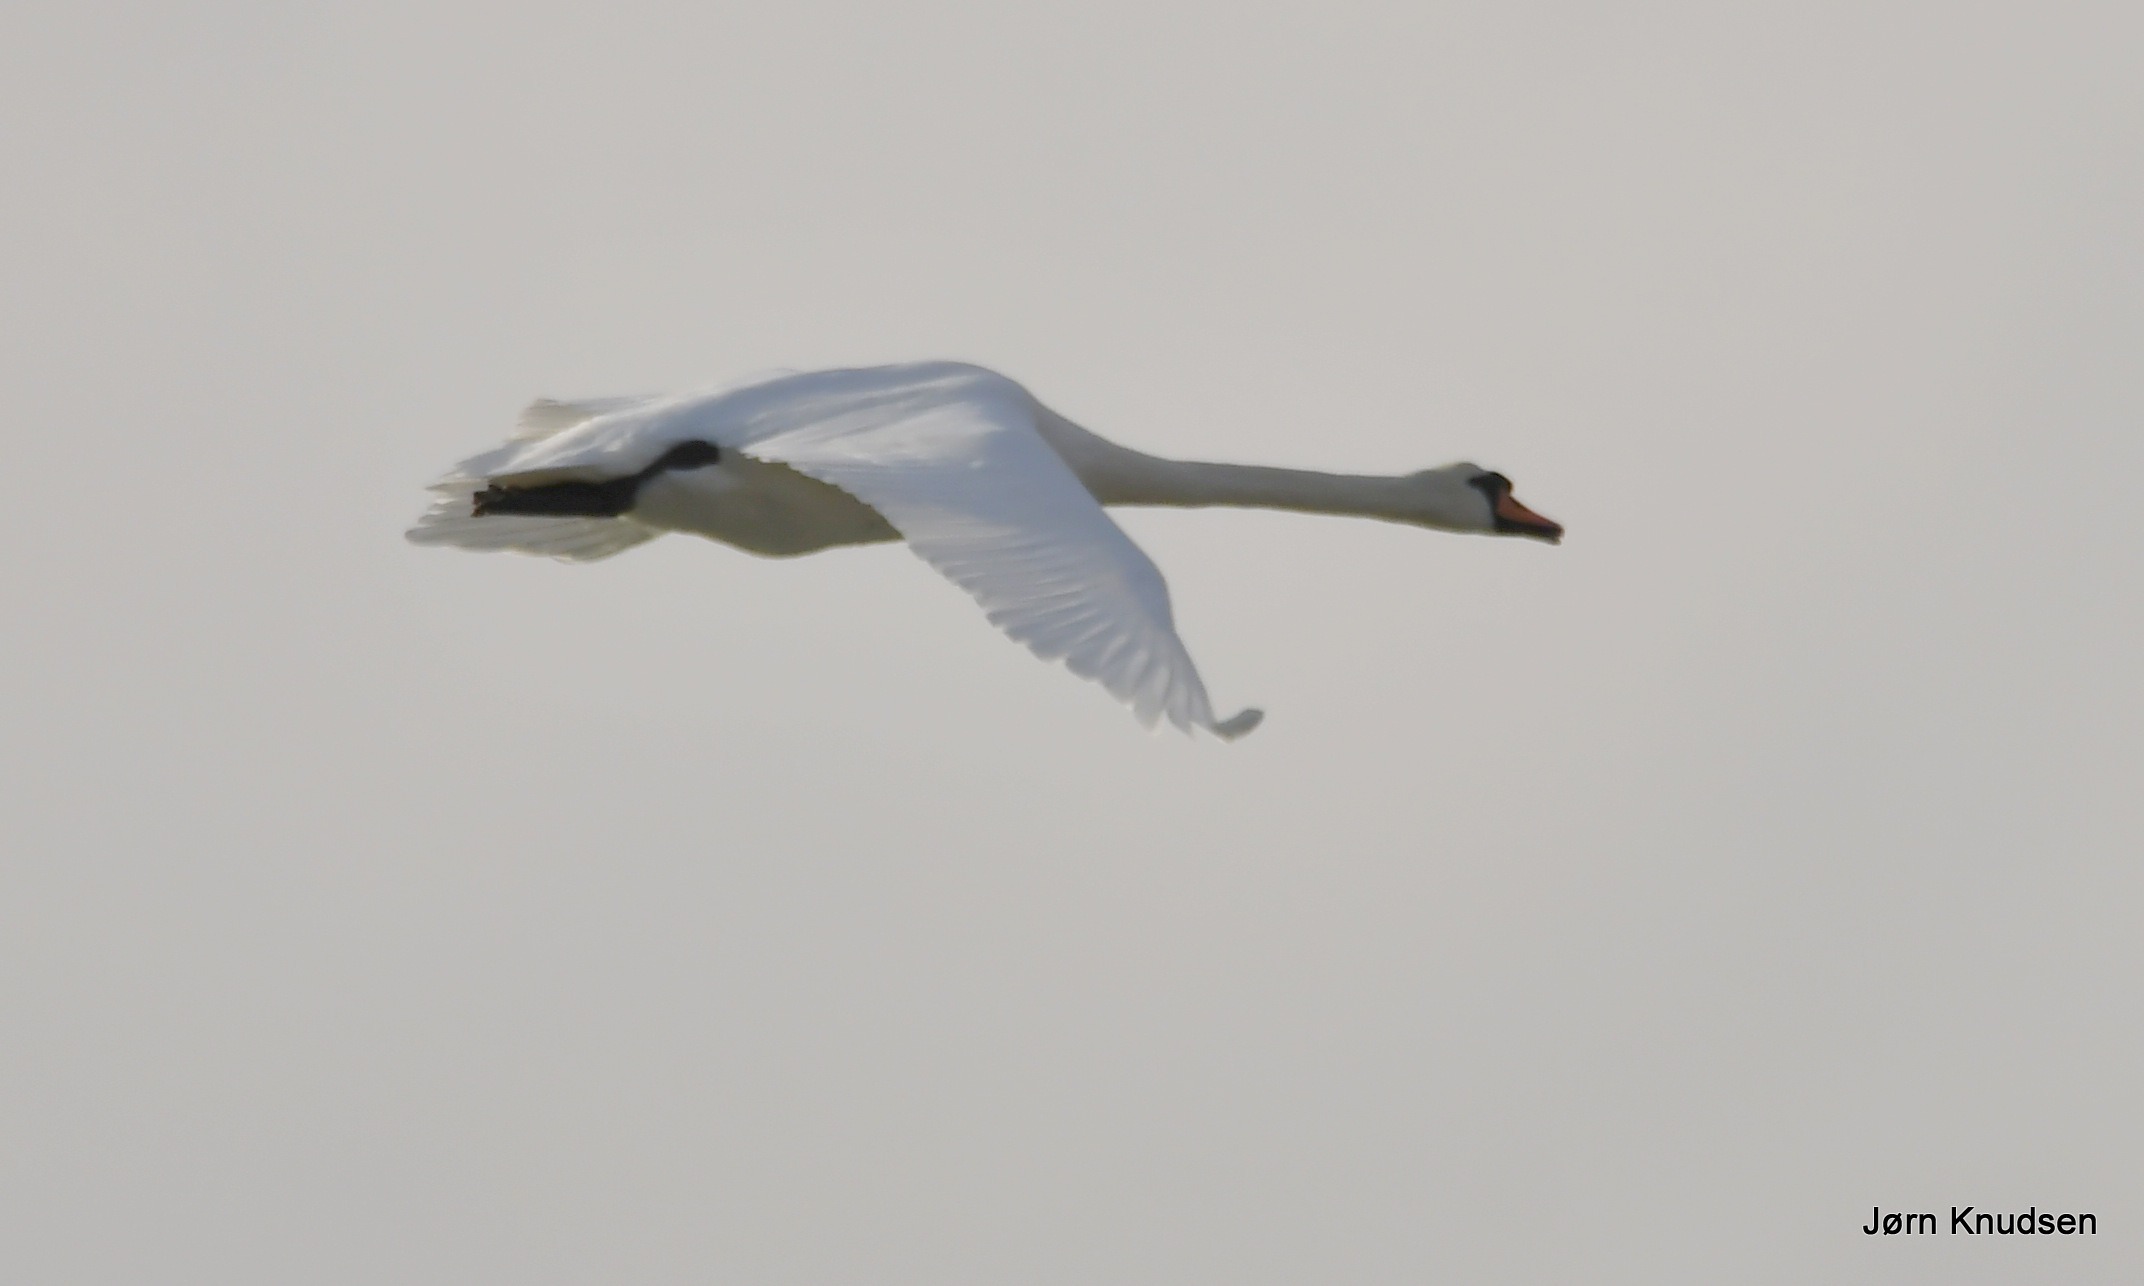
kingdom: Animalia
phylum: Chordata
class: Aves
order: Anseriformes
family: Anatidae
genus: Cygnus
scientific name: Cygnus olor
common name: Knopsvane
